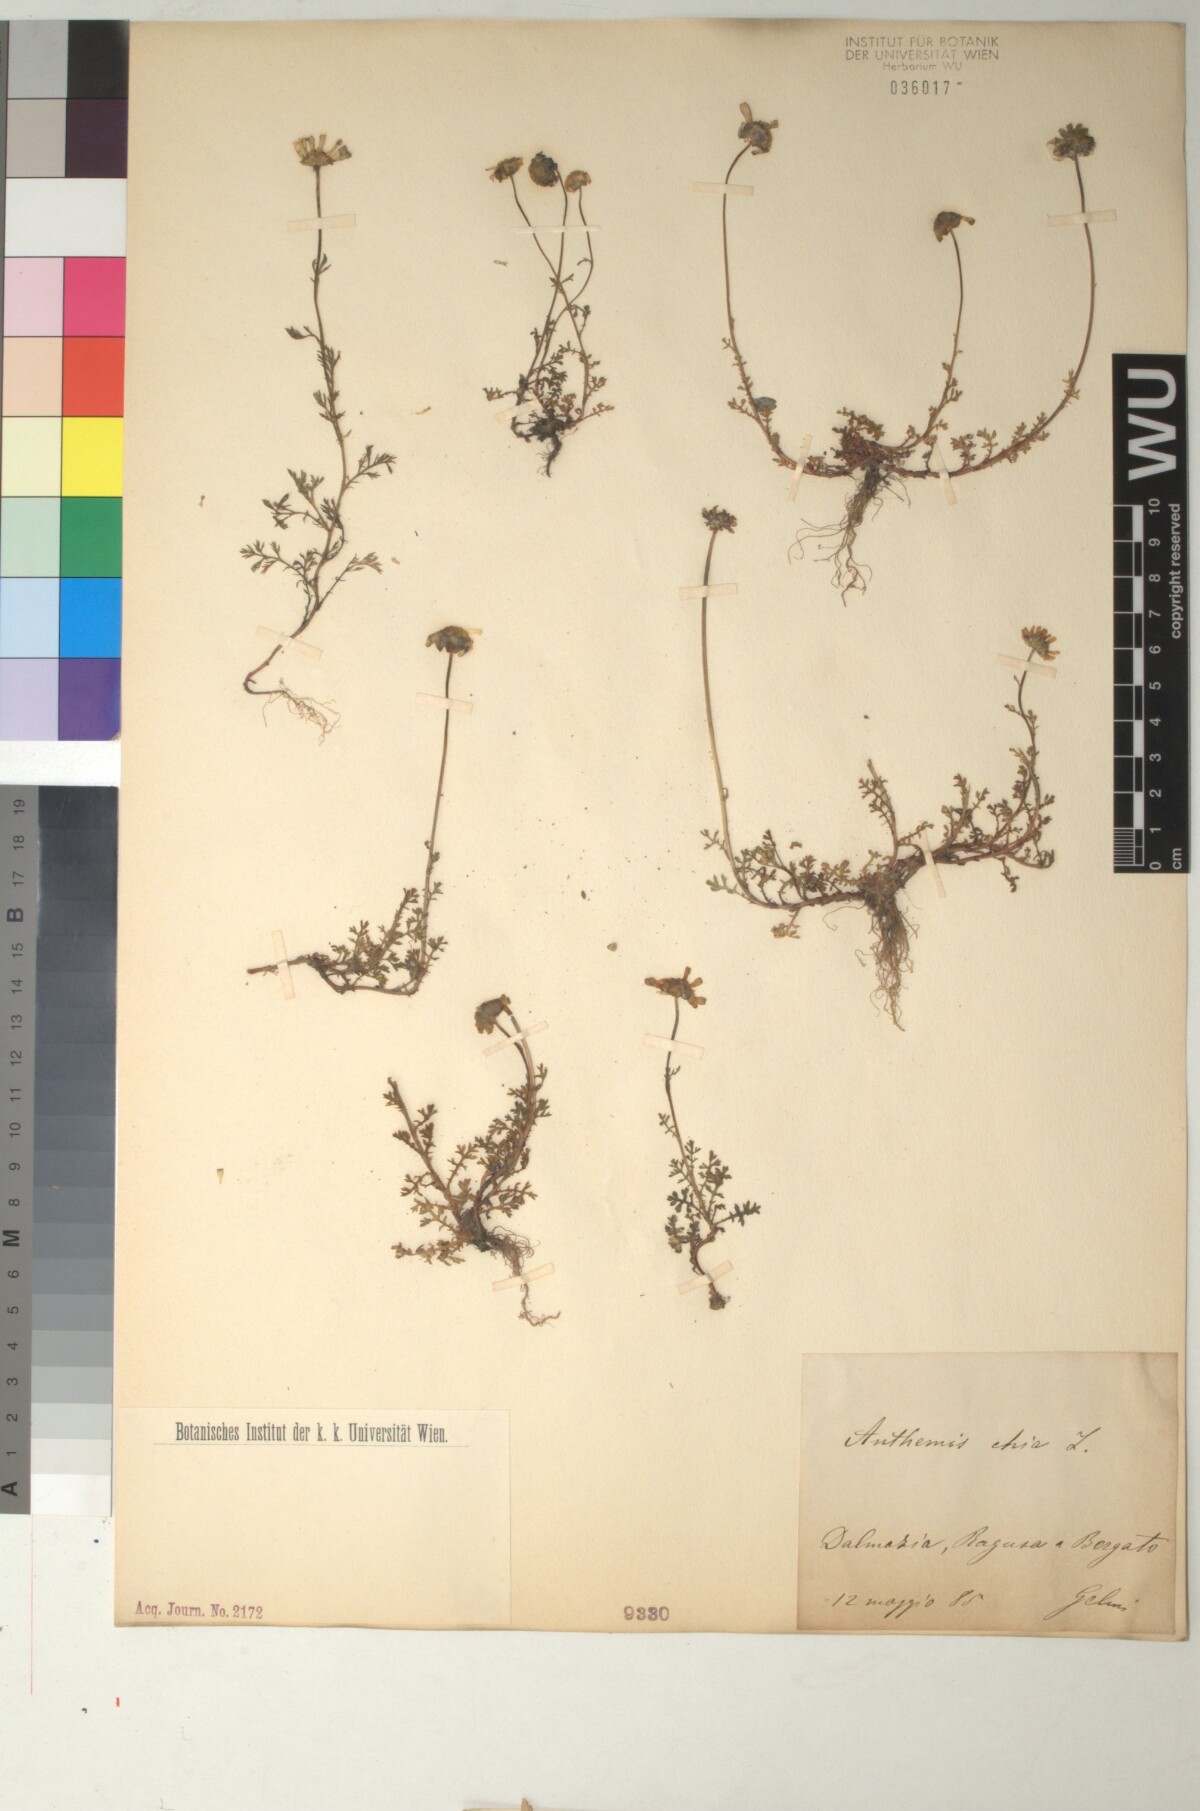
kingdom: Plantae
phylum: Tracheophyta
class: Magnoliopsida
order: Asterales
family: Asteraceae
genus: Anthemis
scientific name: Anthemis chia
